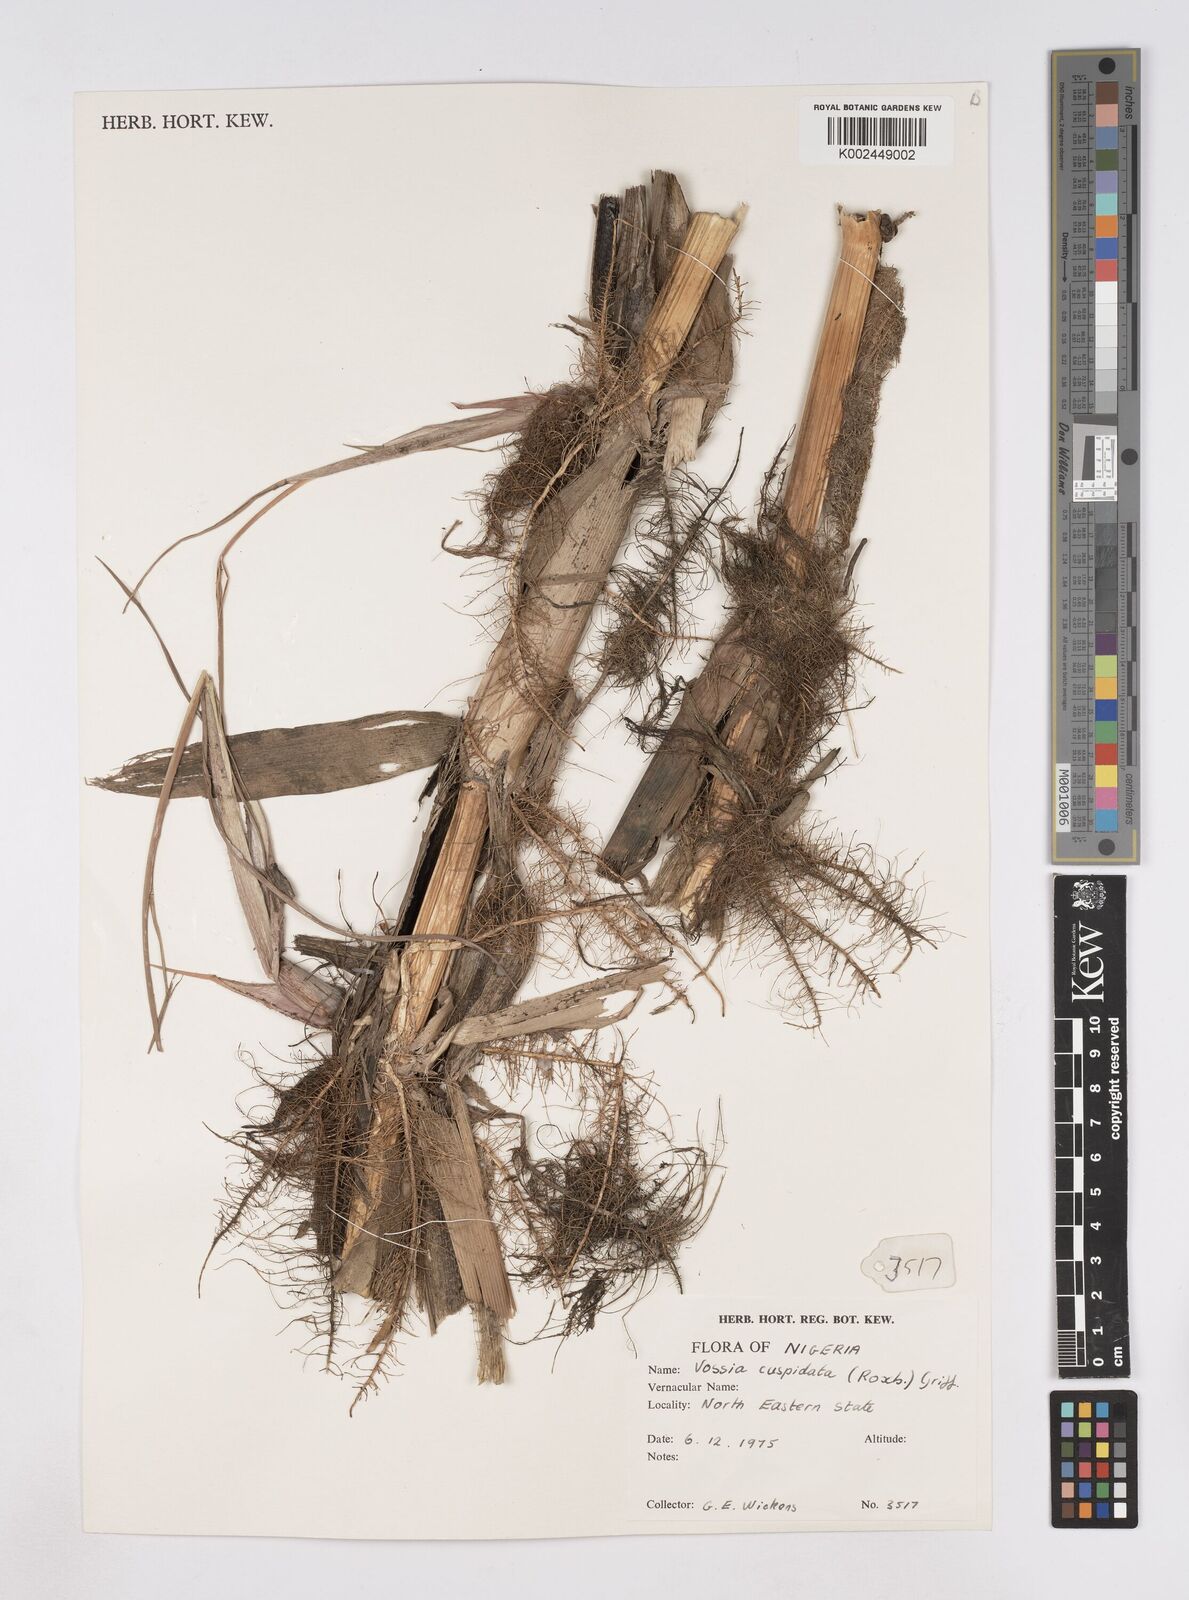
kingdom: Plantae
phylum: Tracheophyta
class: Liliopsida
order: Poales
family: Poaceae
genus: Vossia
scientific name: Vossia cuspidata
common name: Hippo grass
